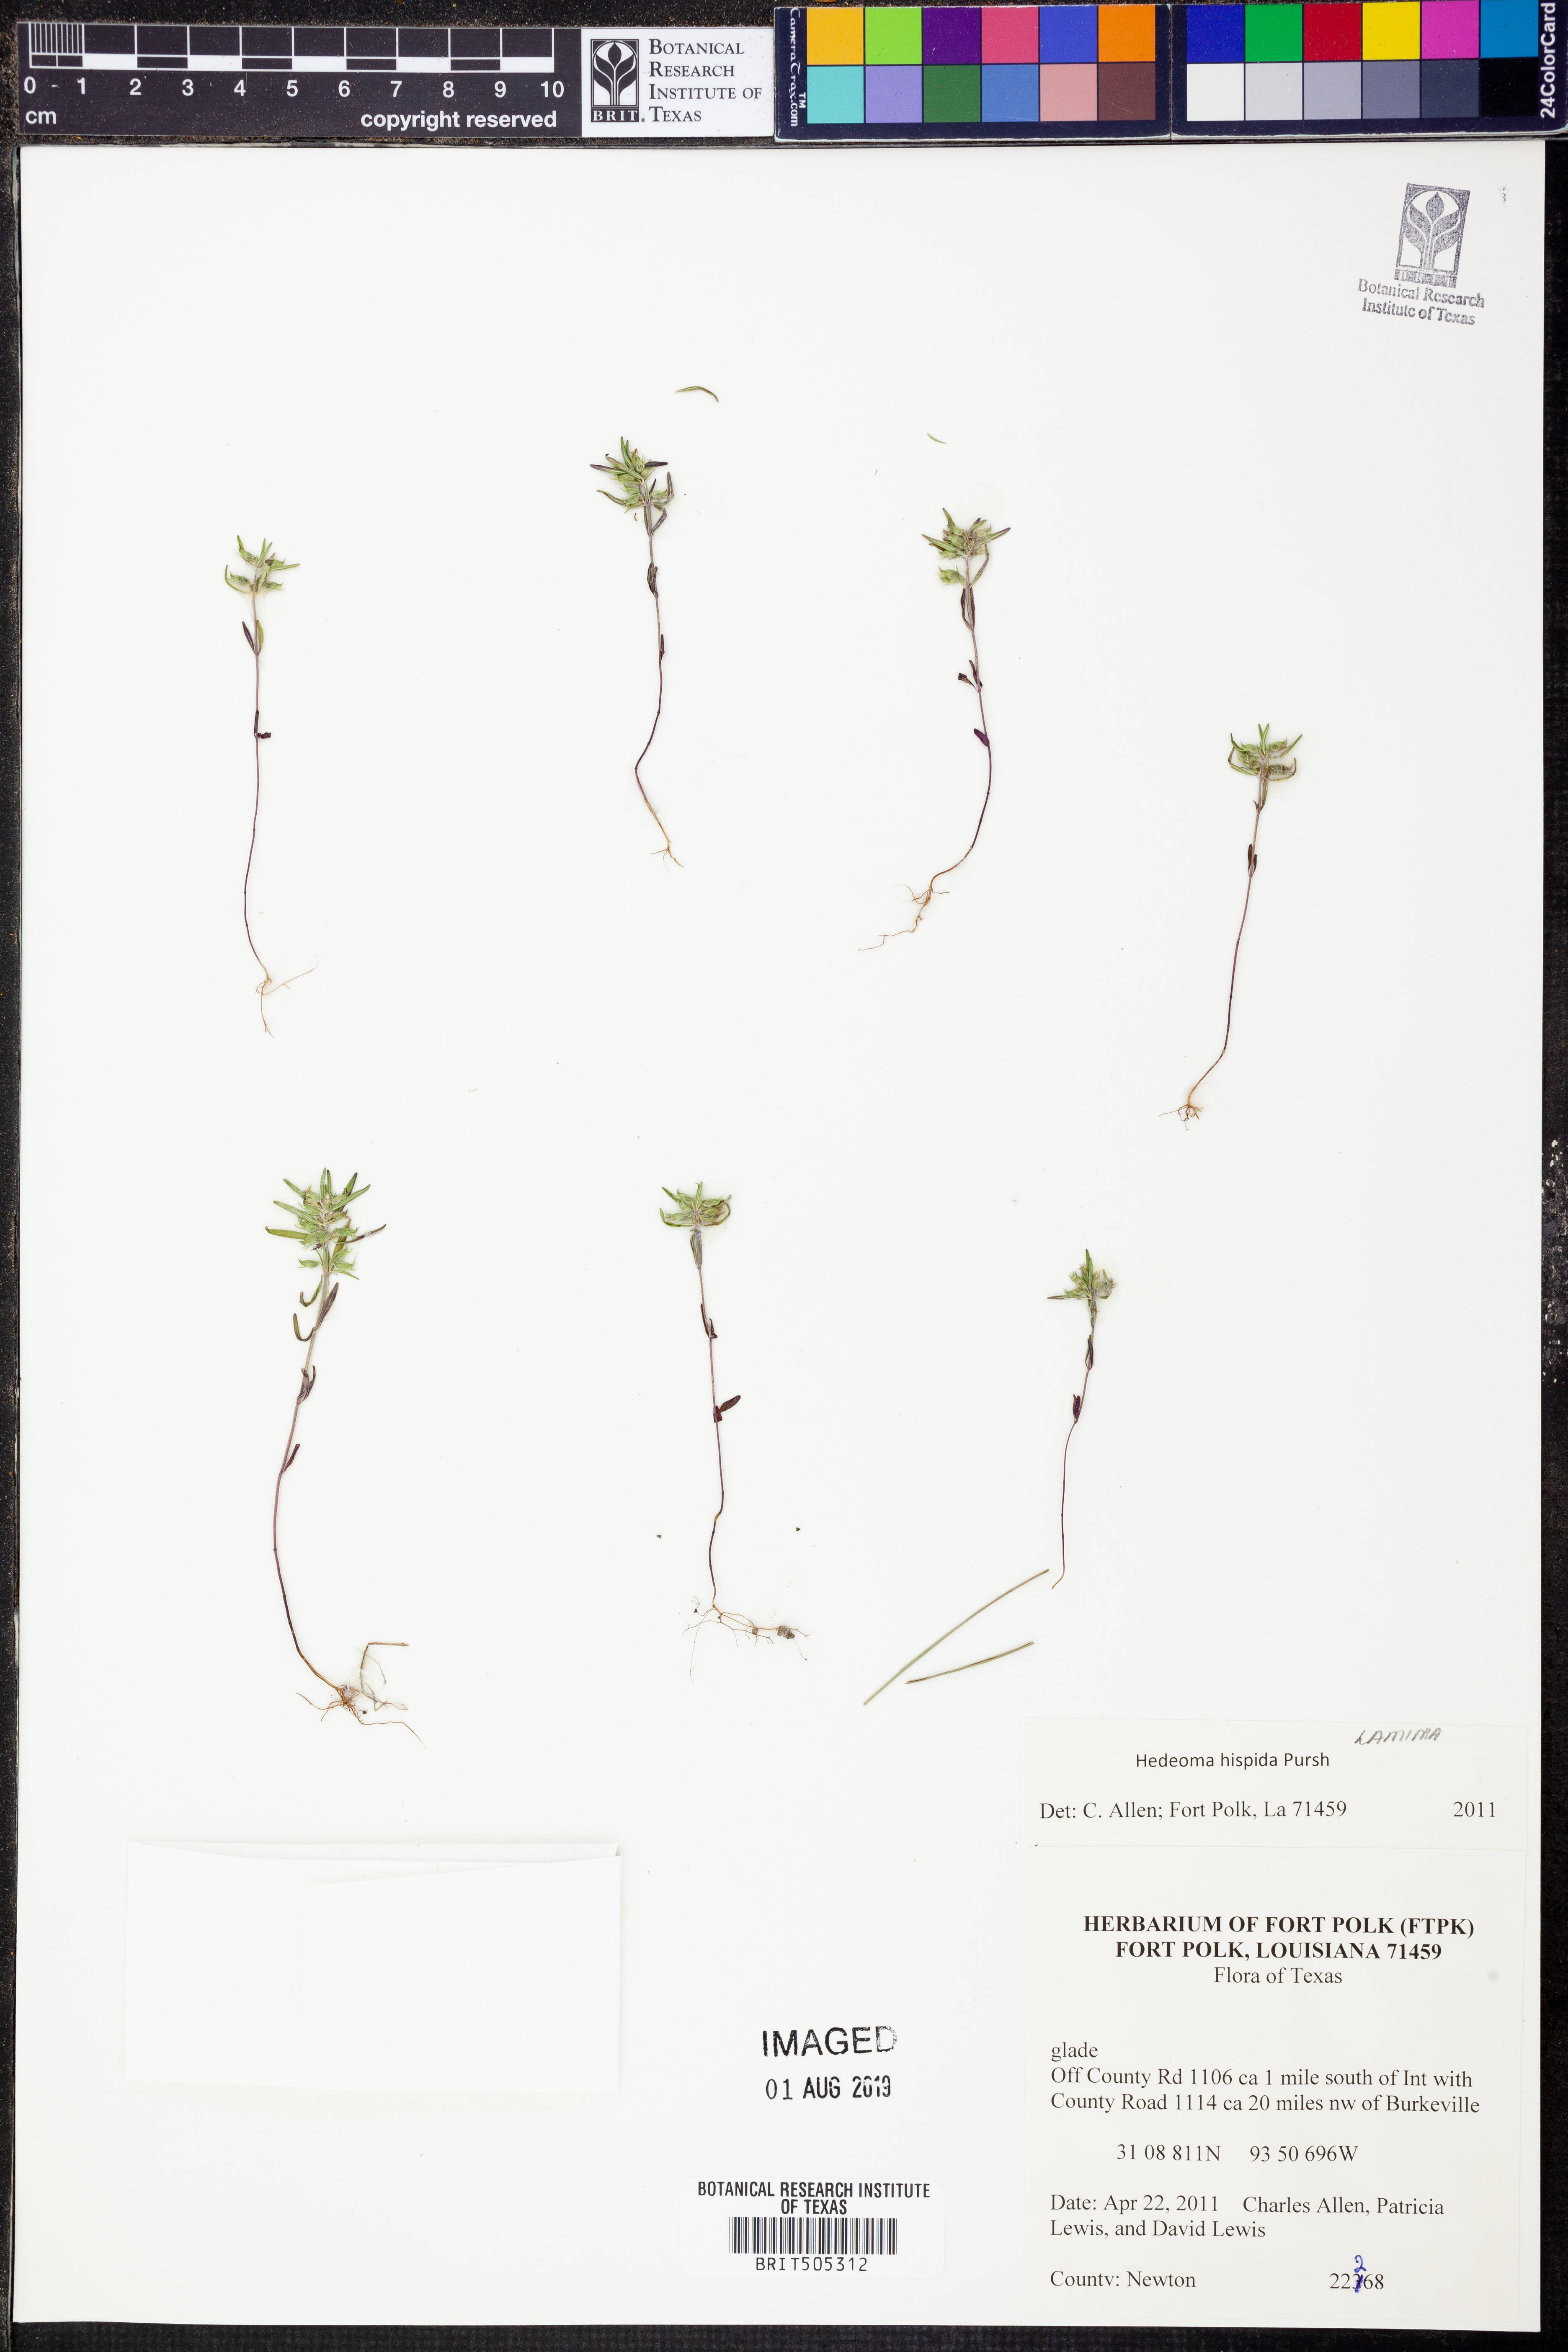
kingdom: Plantae
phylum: Tracheophyta
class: Magnoliopsida
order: Lamiales
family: Lamiaceae
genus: Hedeoma
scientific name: Hedeoma hispida
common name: Mock pennyroyal
